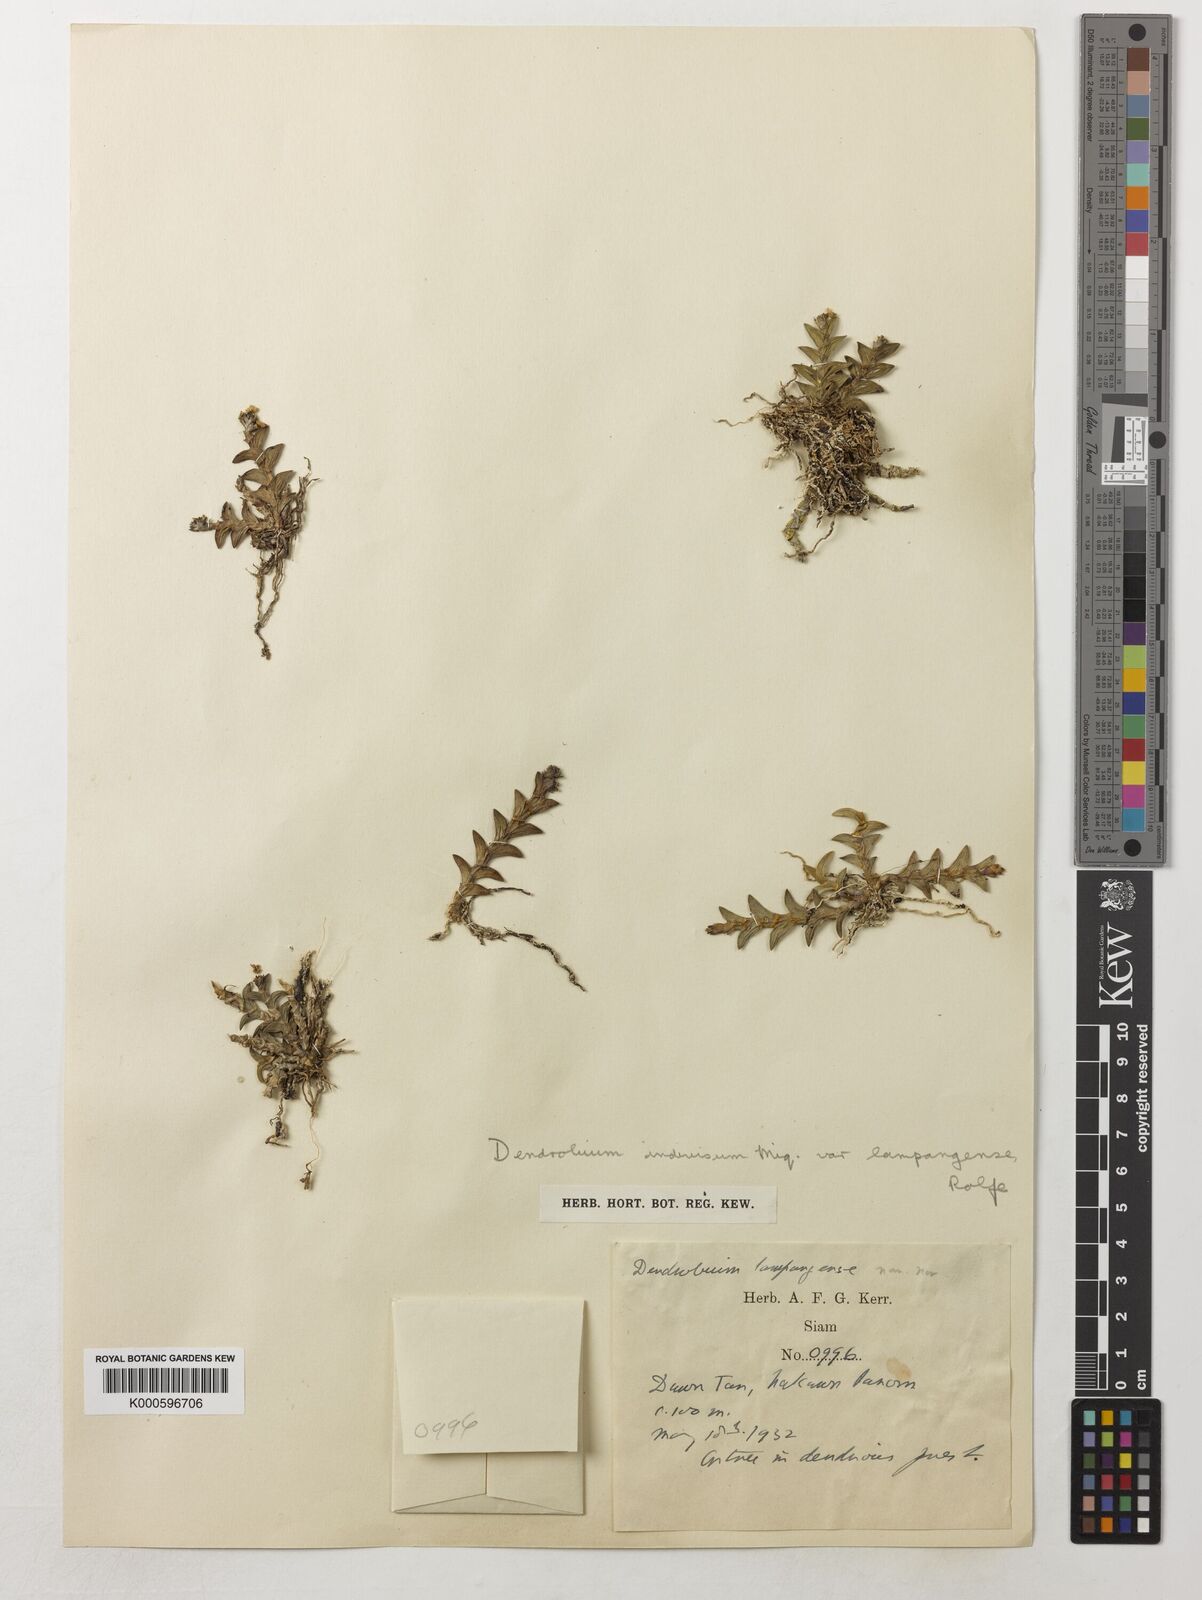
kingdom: Plantae
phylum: Tracheophyta
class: Liliopsida
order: Asparagales
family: Orchidaceae
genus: Dendrobium
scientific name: Dendrobium indivisum
